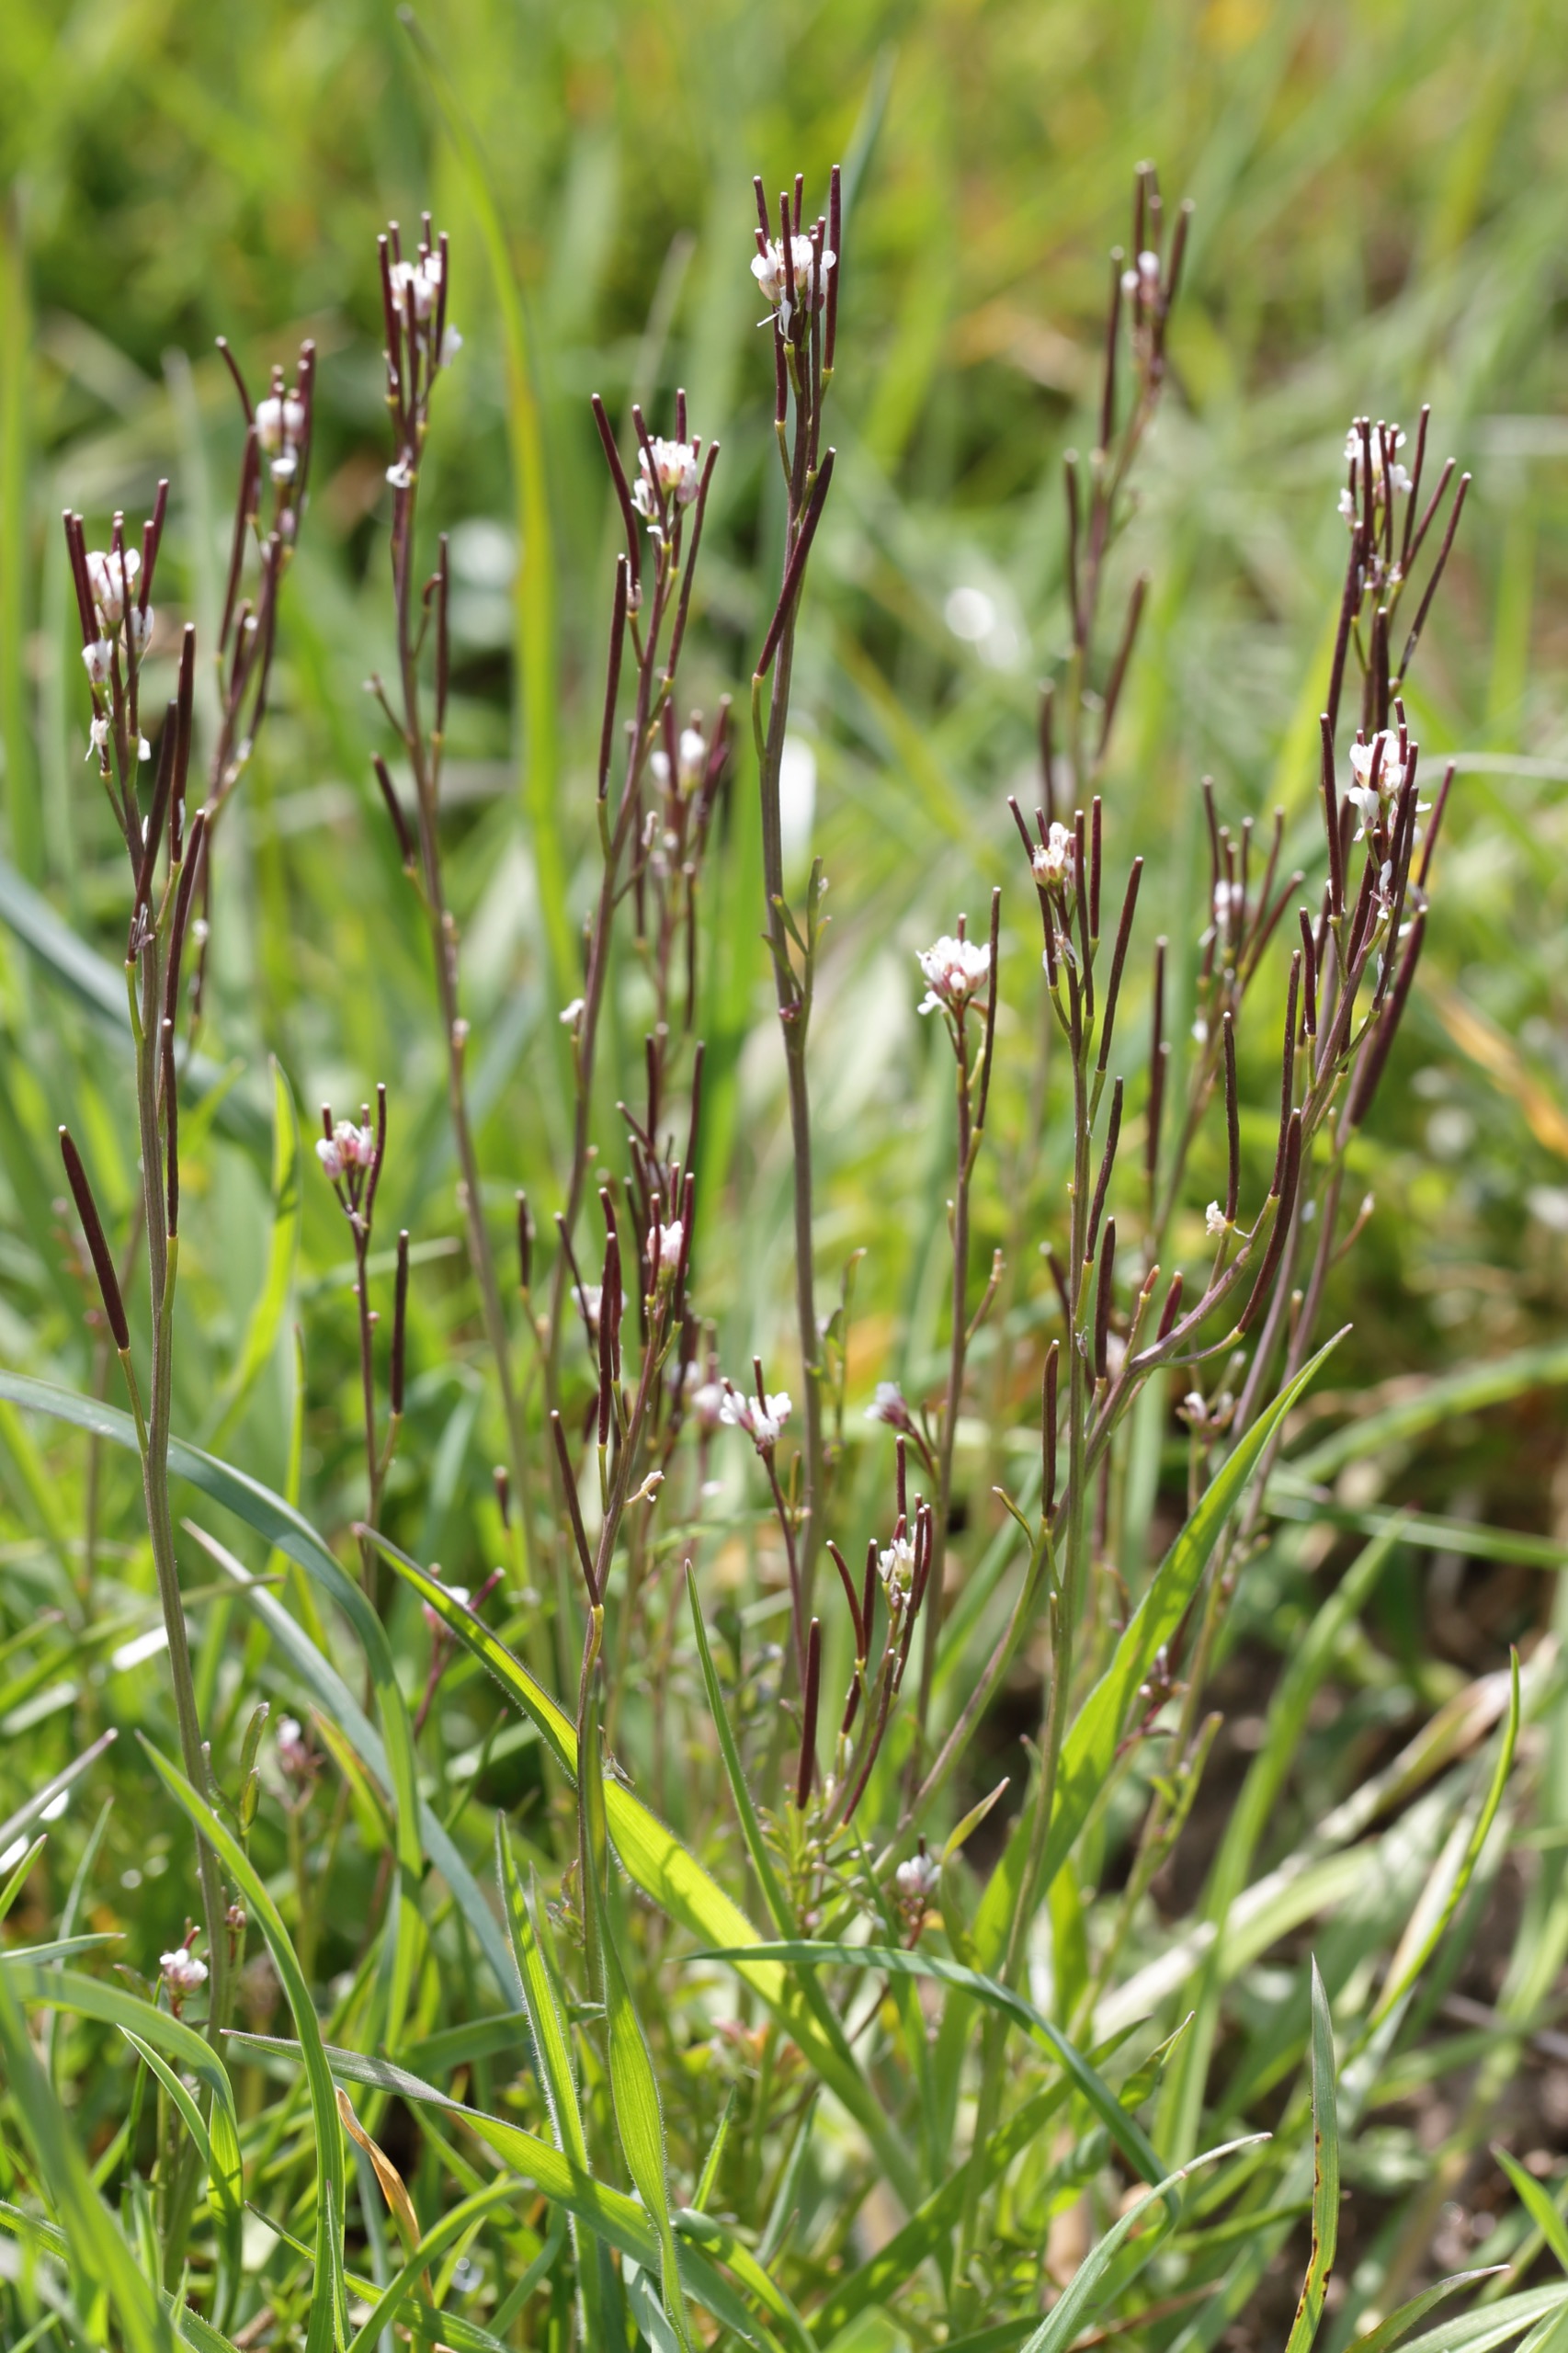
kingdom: Plantae
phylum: Tracheophyta
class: Magnoliopsida
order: Brassicales
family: Brassicaceae
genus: Cardamine
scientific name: Cardamine hirsuta
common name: Roset-springklap
